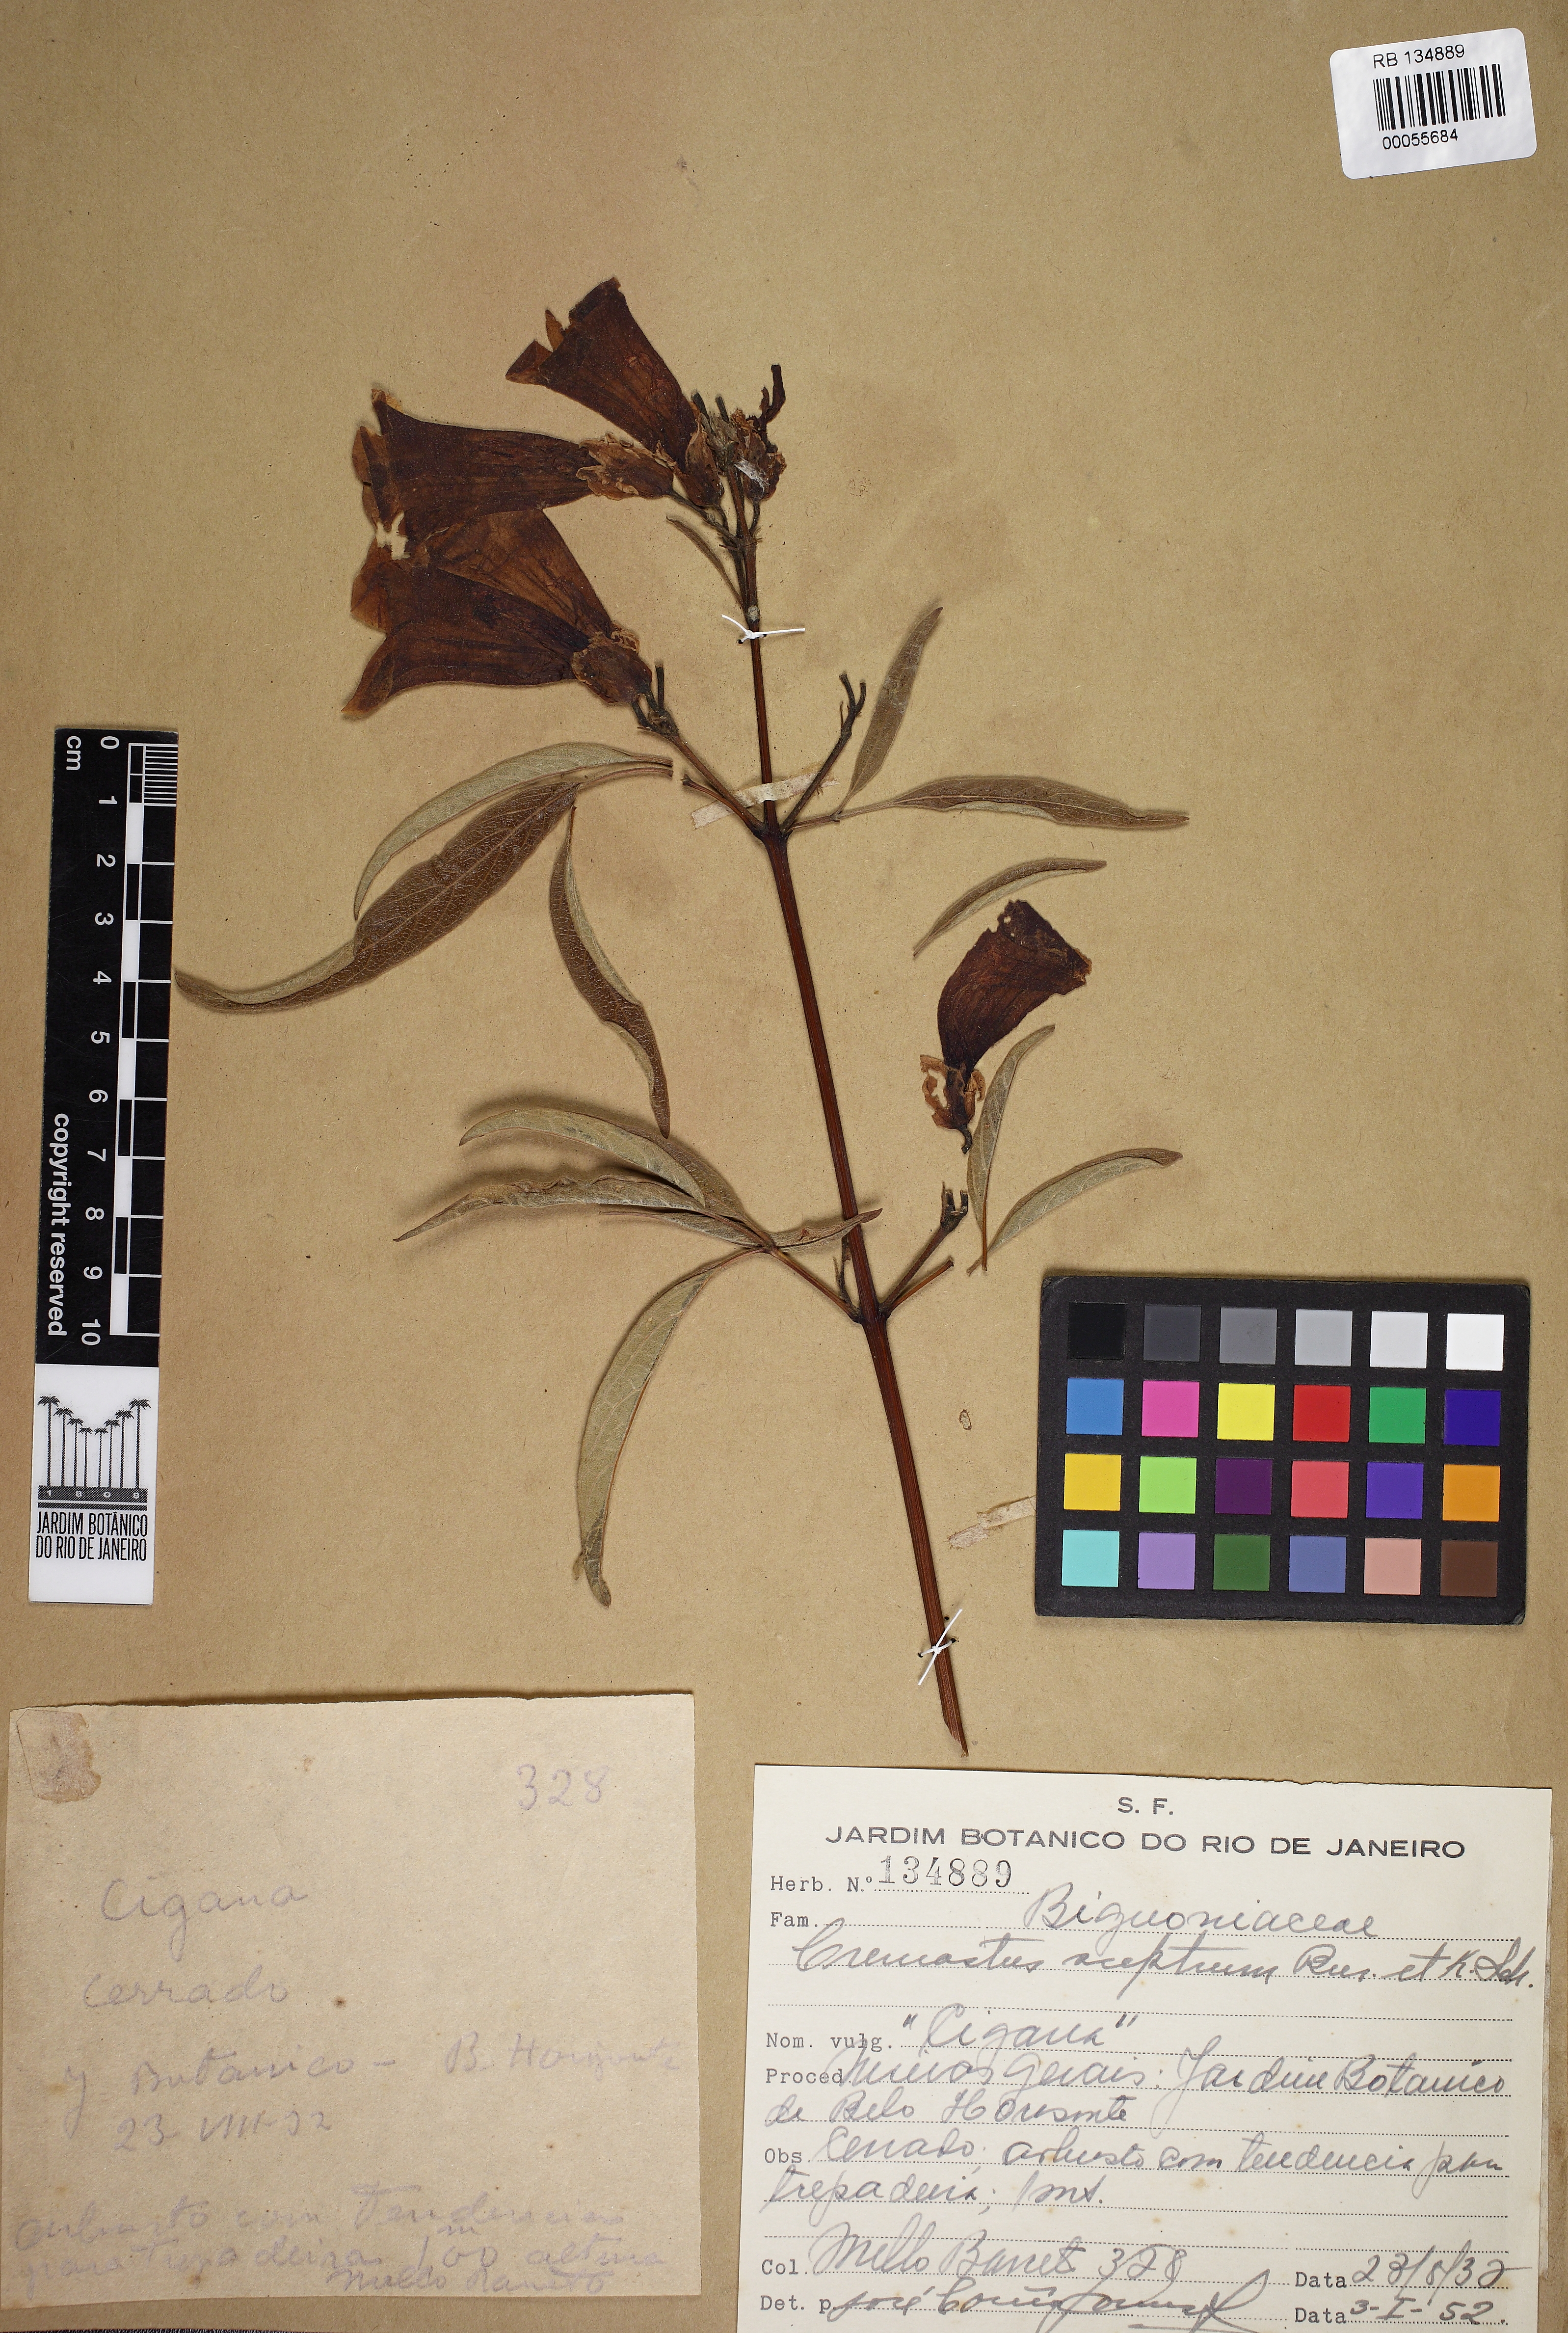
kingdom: Plantae
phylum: Tracheophyta
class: Magnoliopsida
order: Lamiales
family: Bignoniaceae
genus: Cuspidaria
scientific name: Cuspidaria sceptrum
